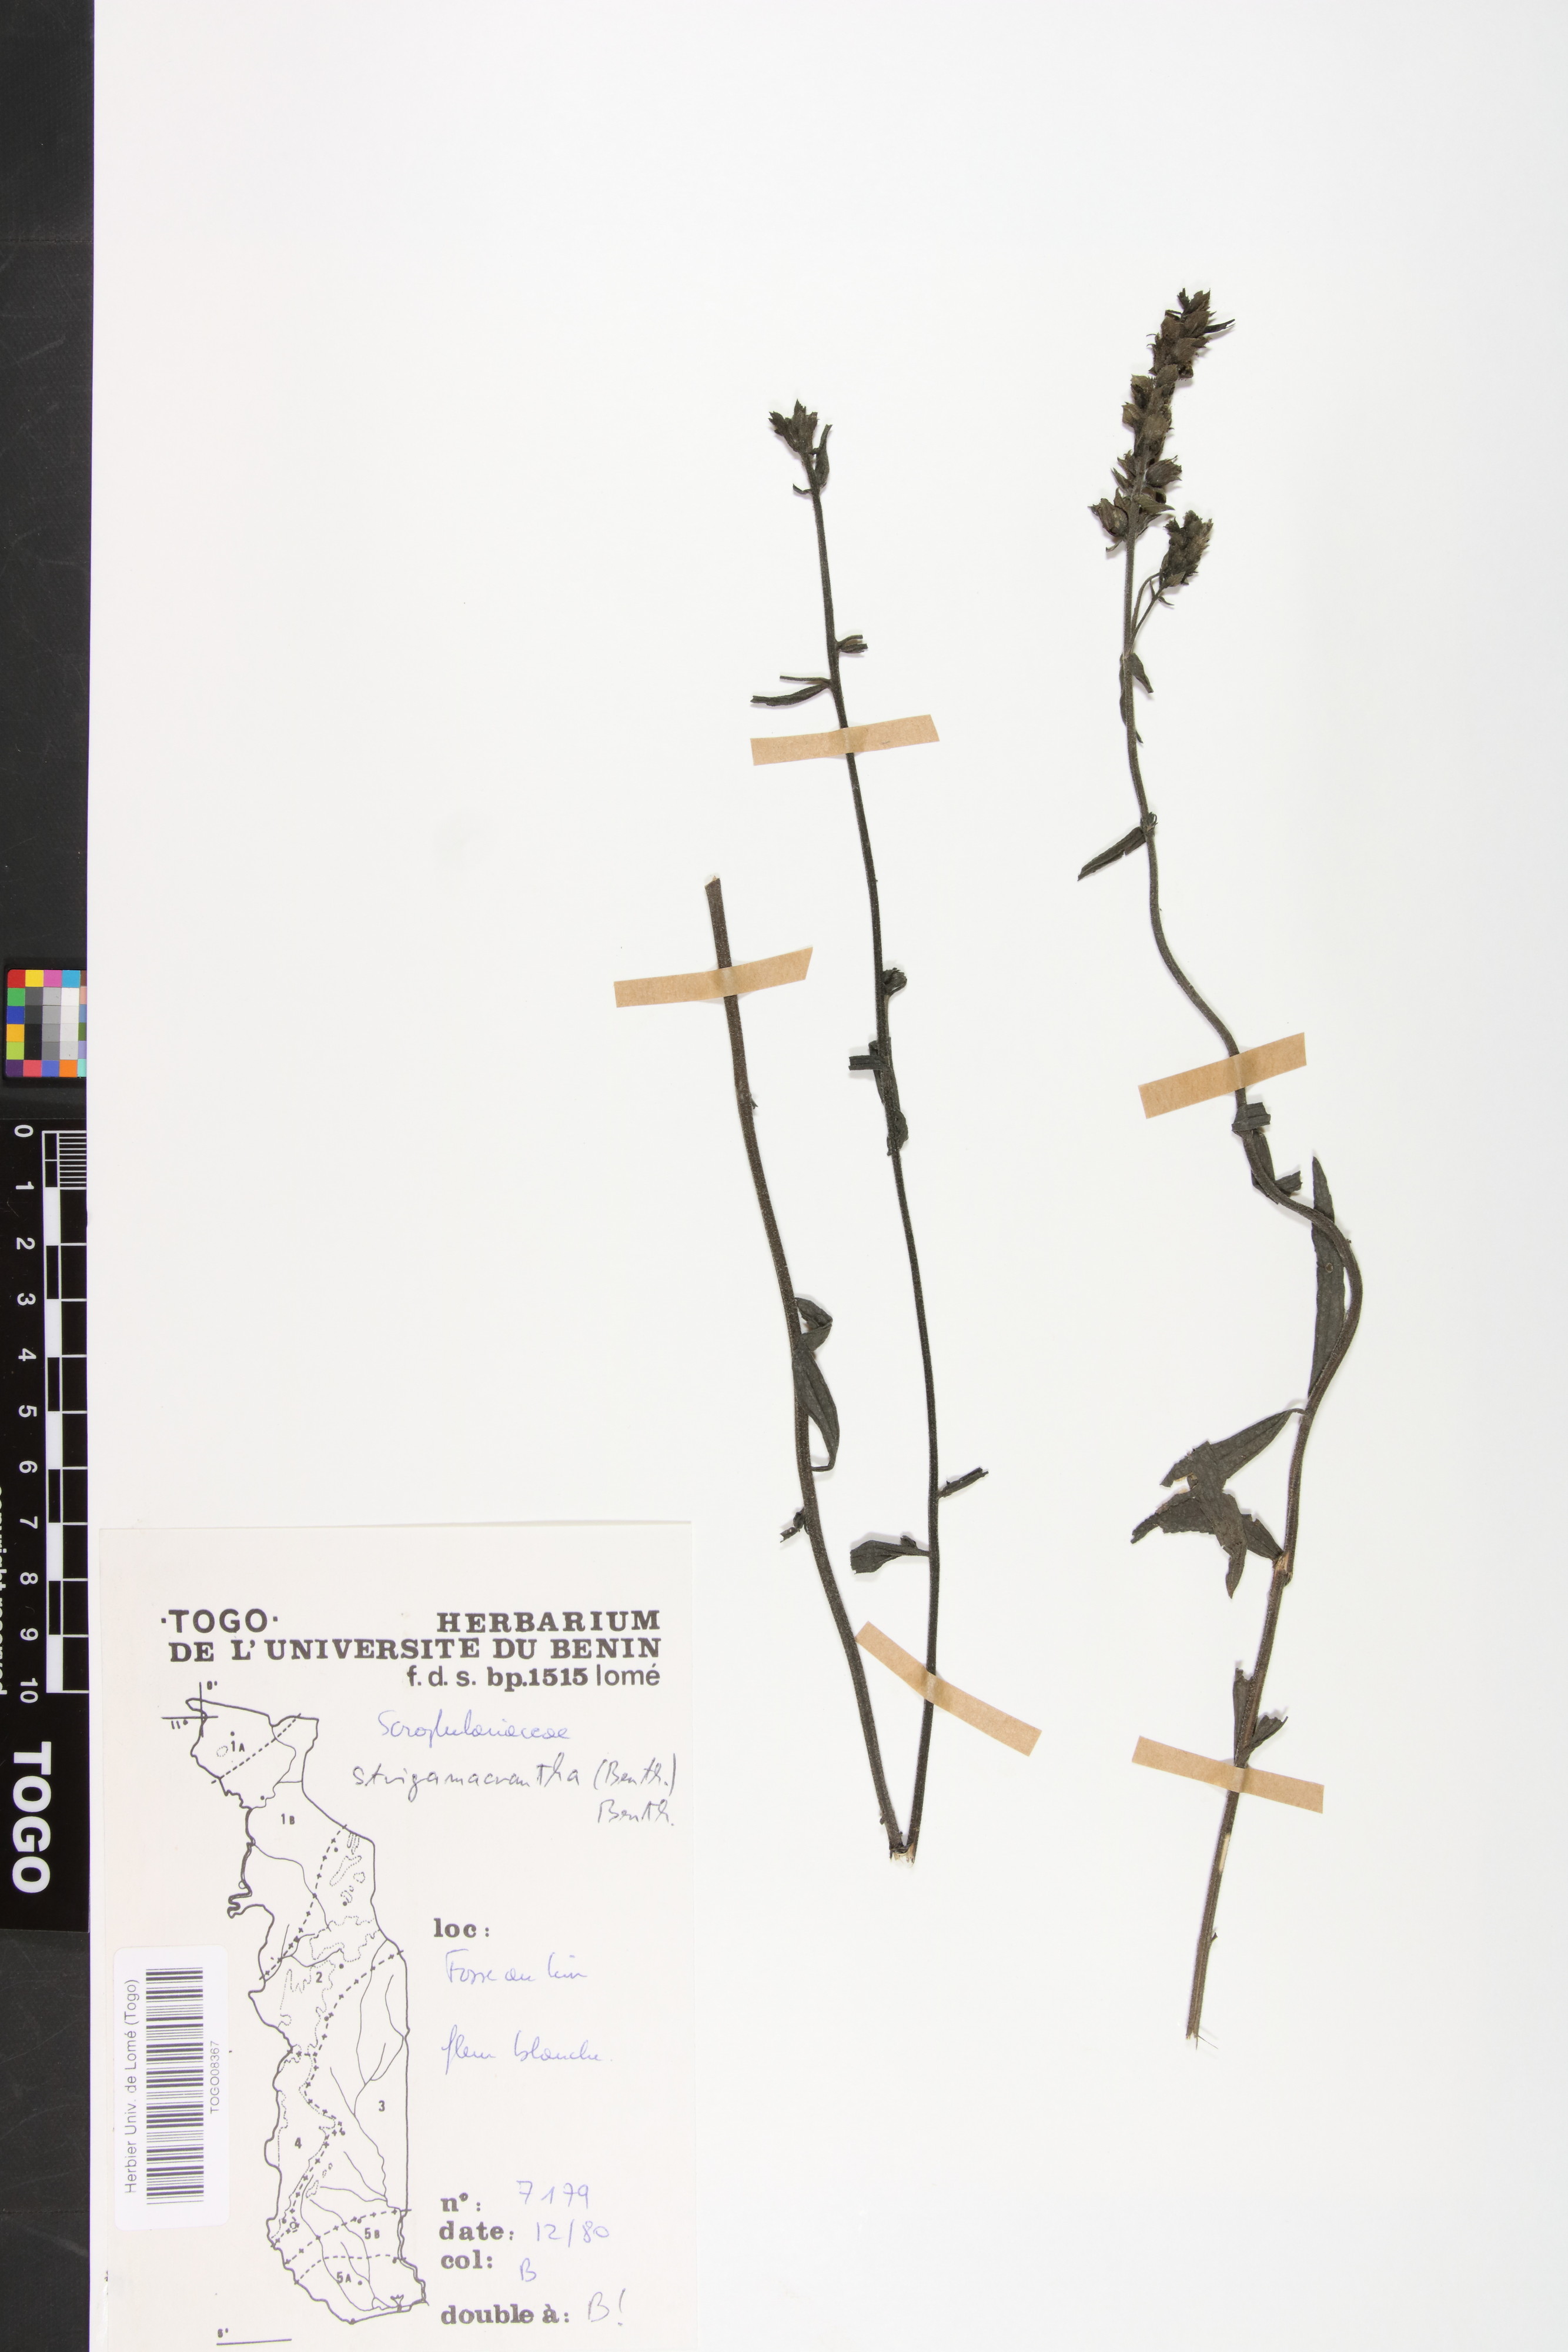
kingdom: Plantae
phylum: Tracheophyta
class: Magnoliopsida
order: Lamiales
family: Orobanchaceae
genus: Striga
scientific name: Striga macrantha
